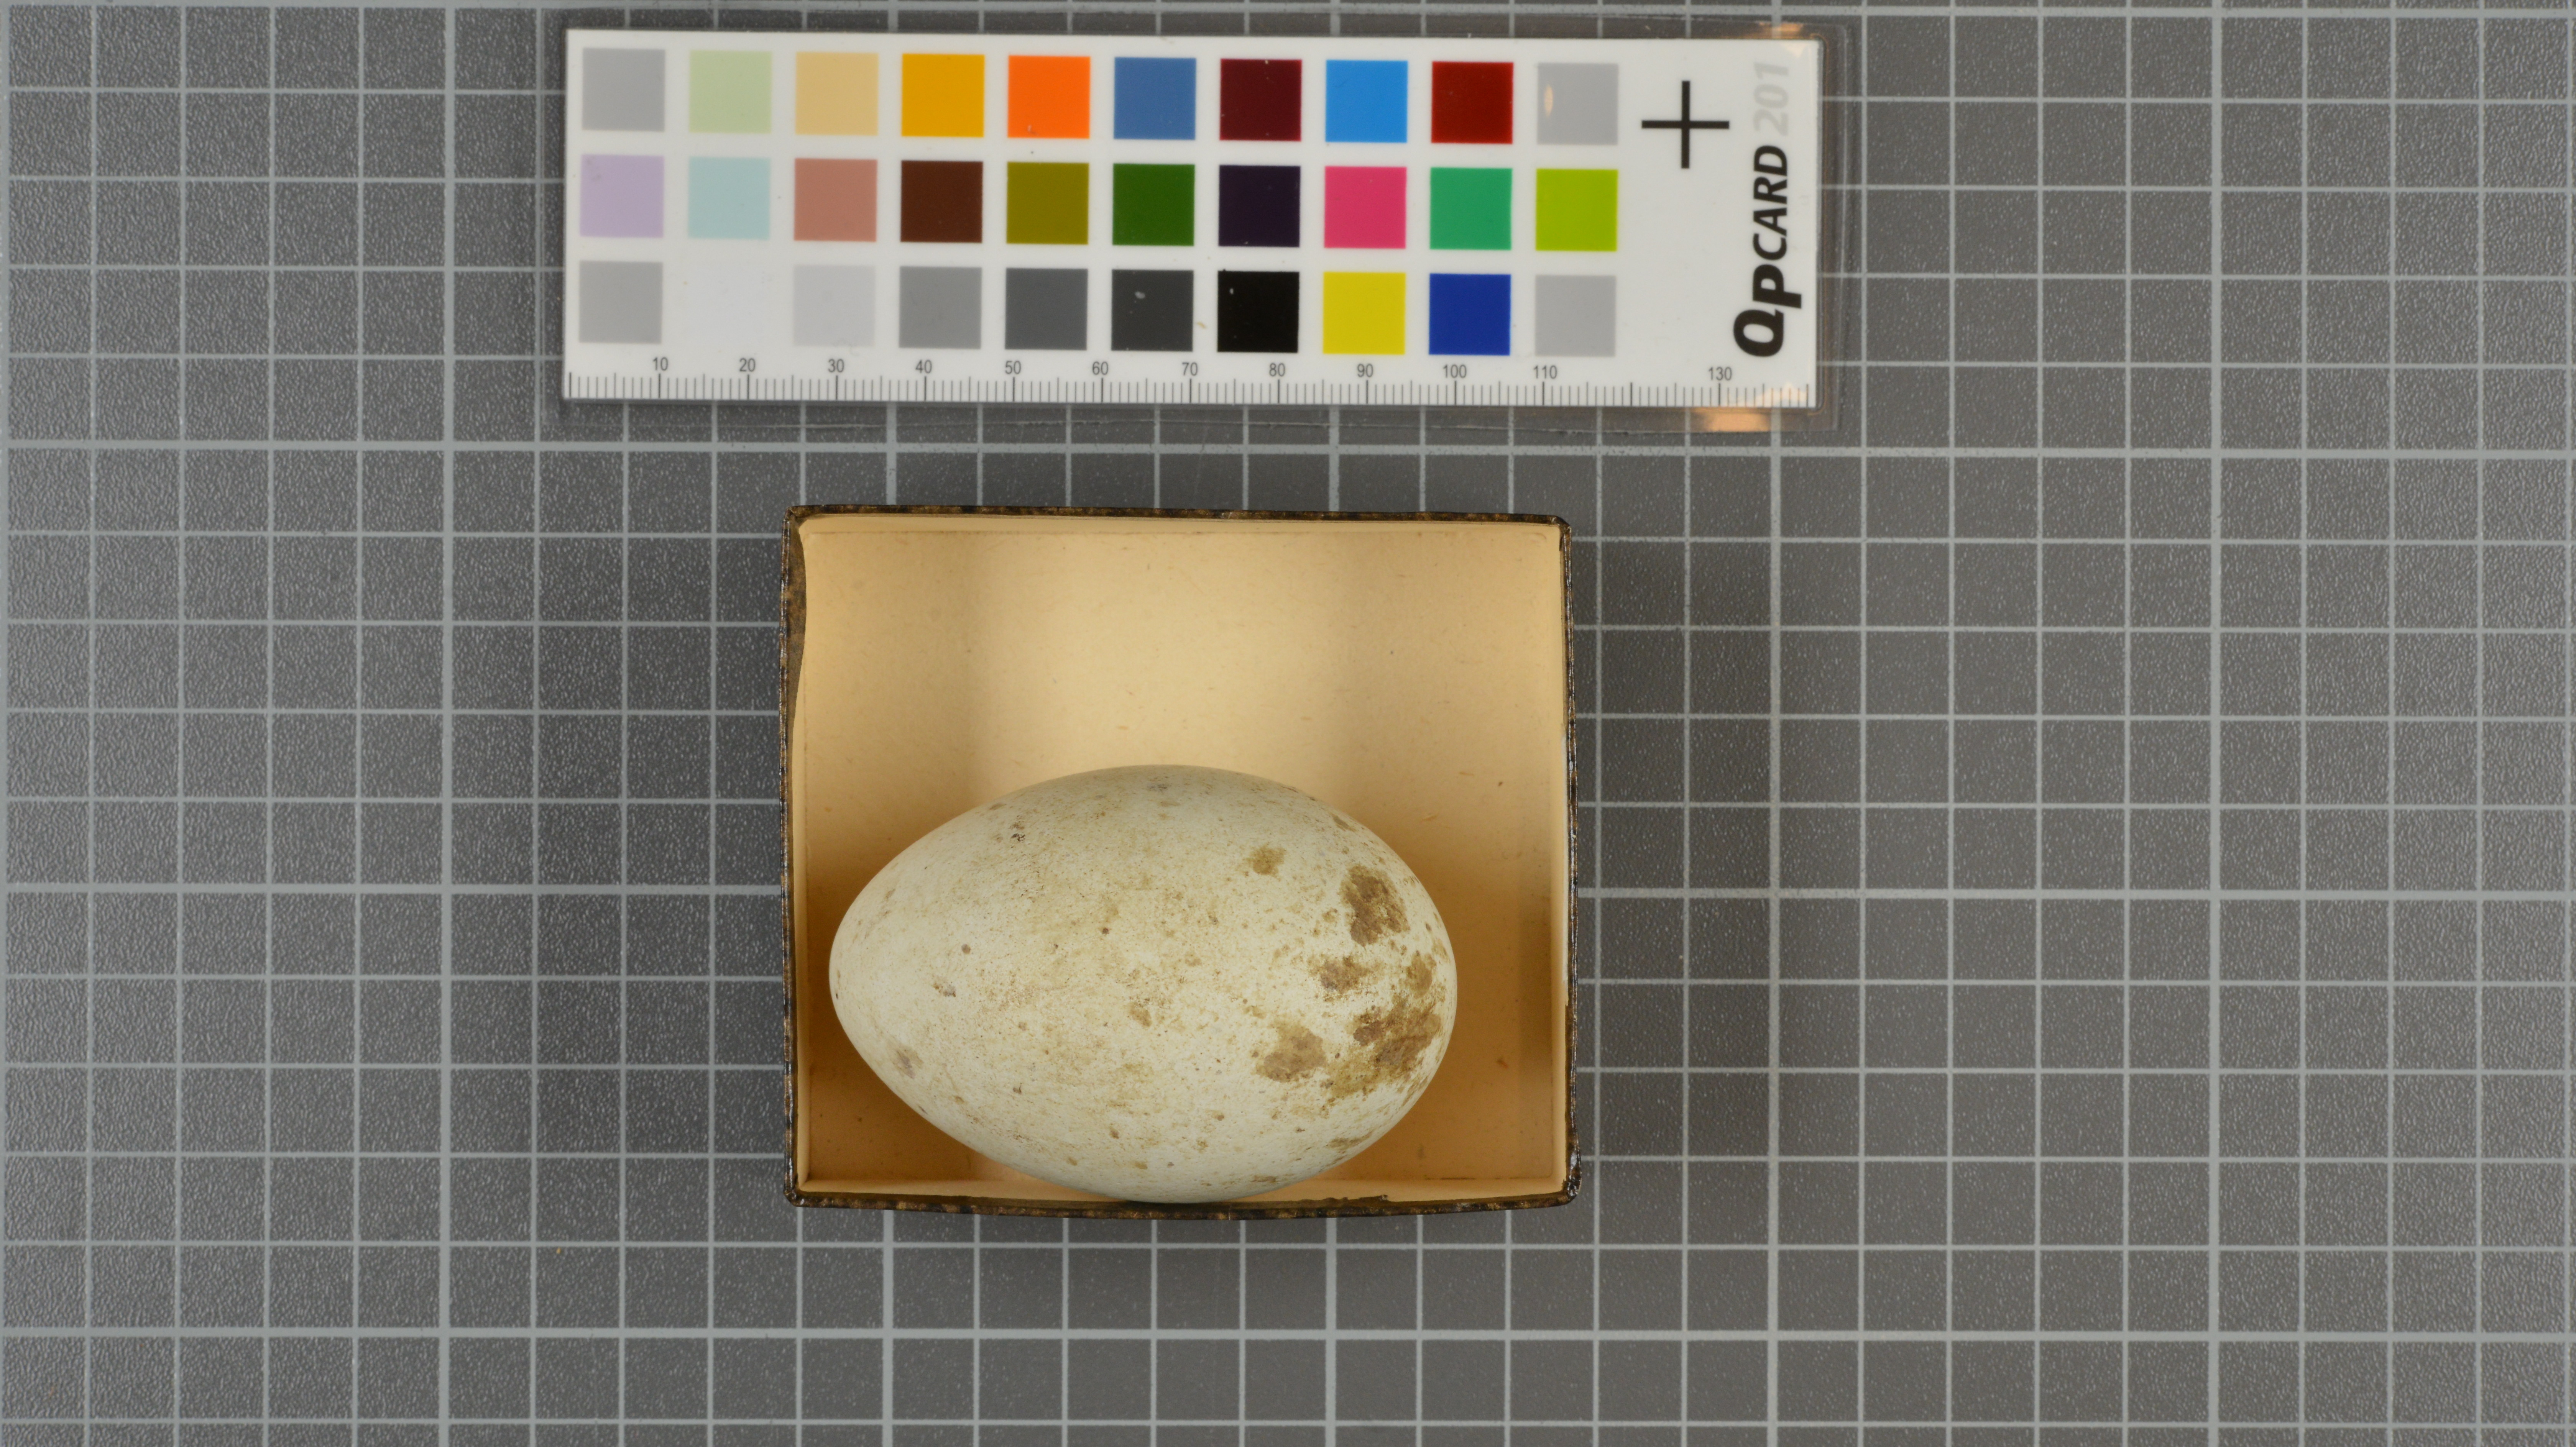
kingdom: Animalia
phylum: Chordata
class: Aves
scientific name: Aves
